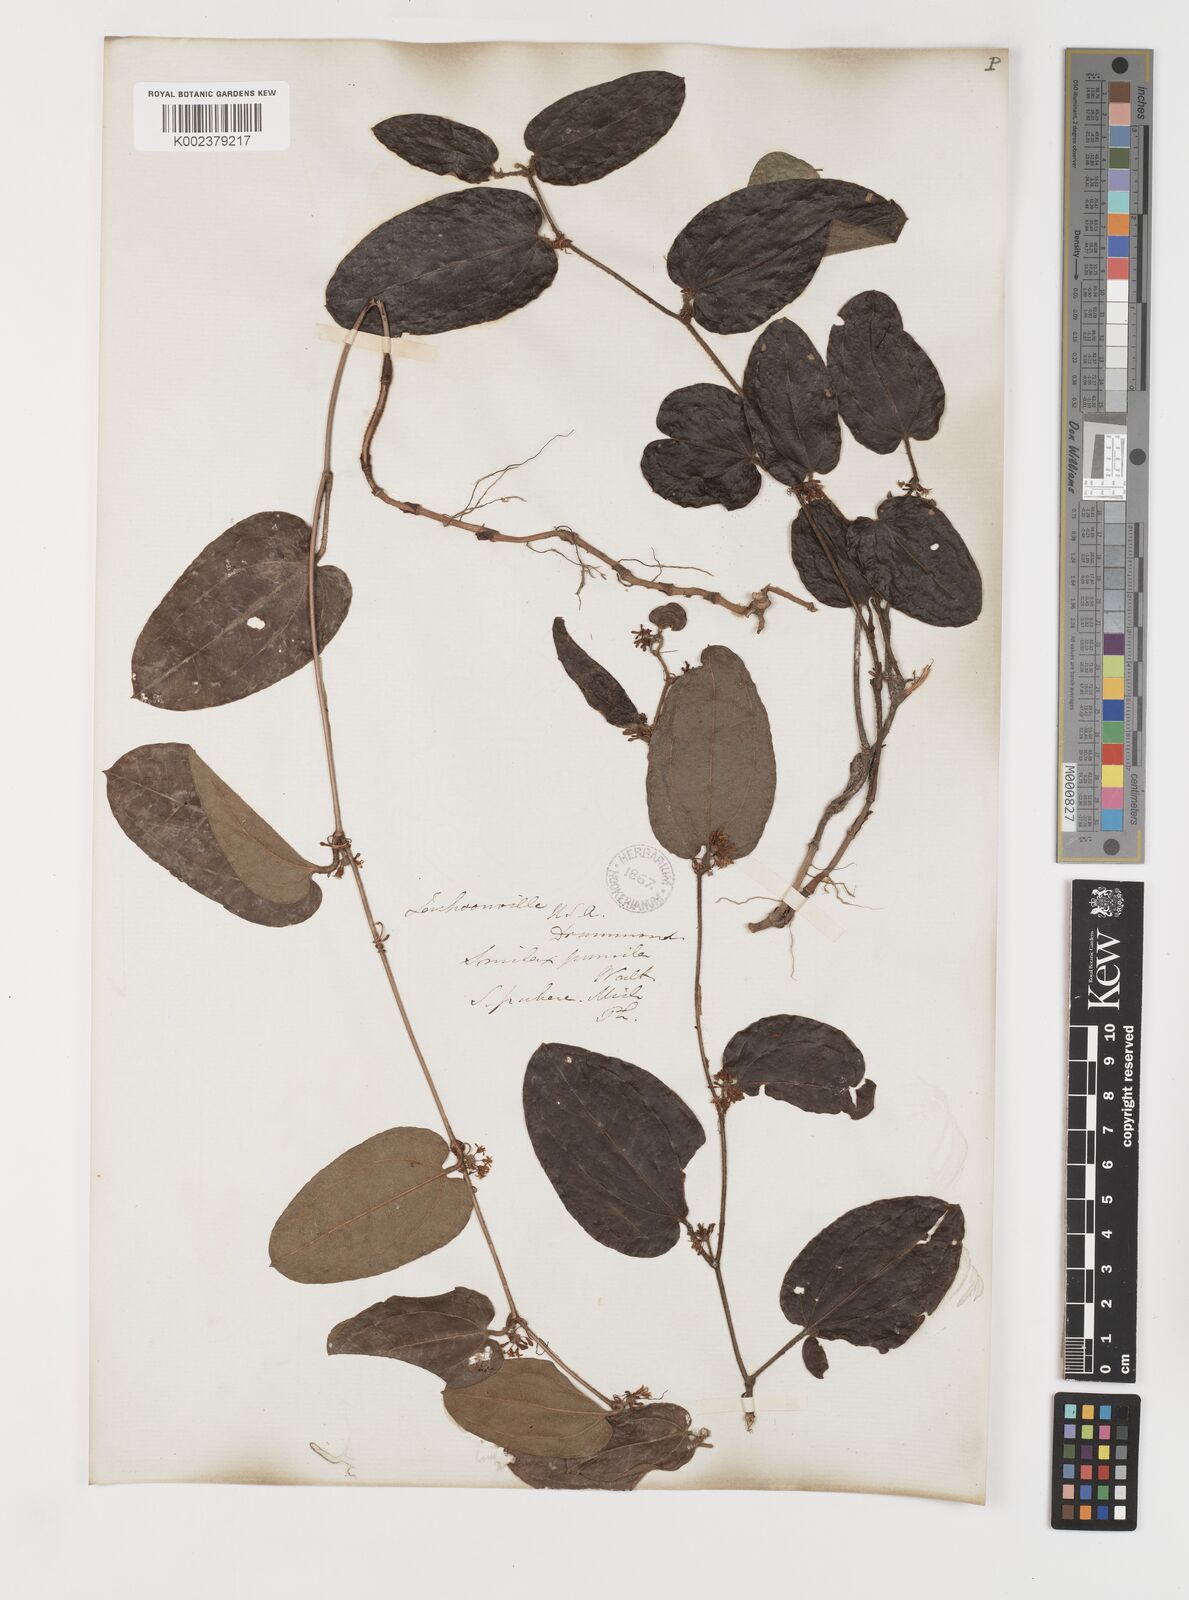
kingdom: Plantae
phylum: Tracheophyta
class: Liliopsida
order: Liliales
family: Smilacaceae
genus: Smilax
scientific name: Smilax pumila
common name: Sarsaparilla-vine
